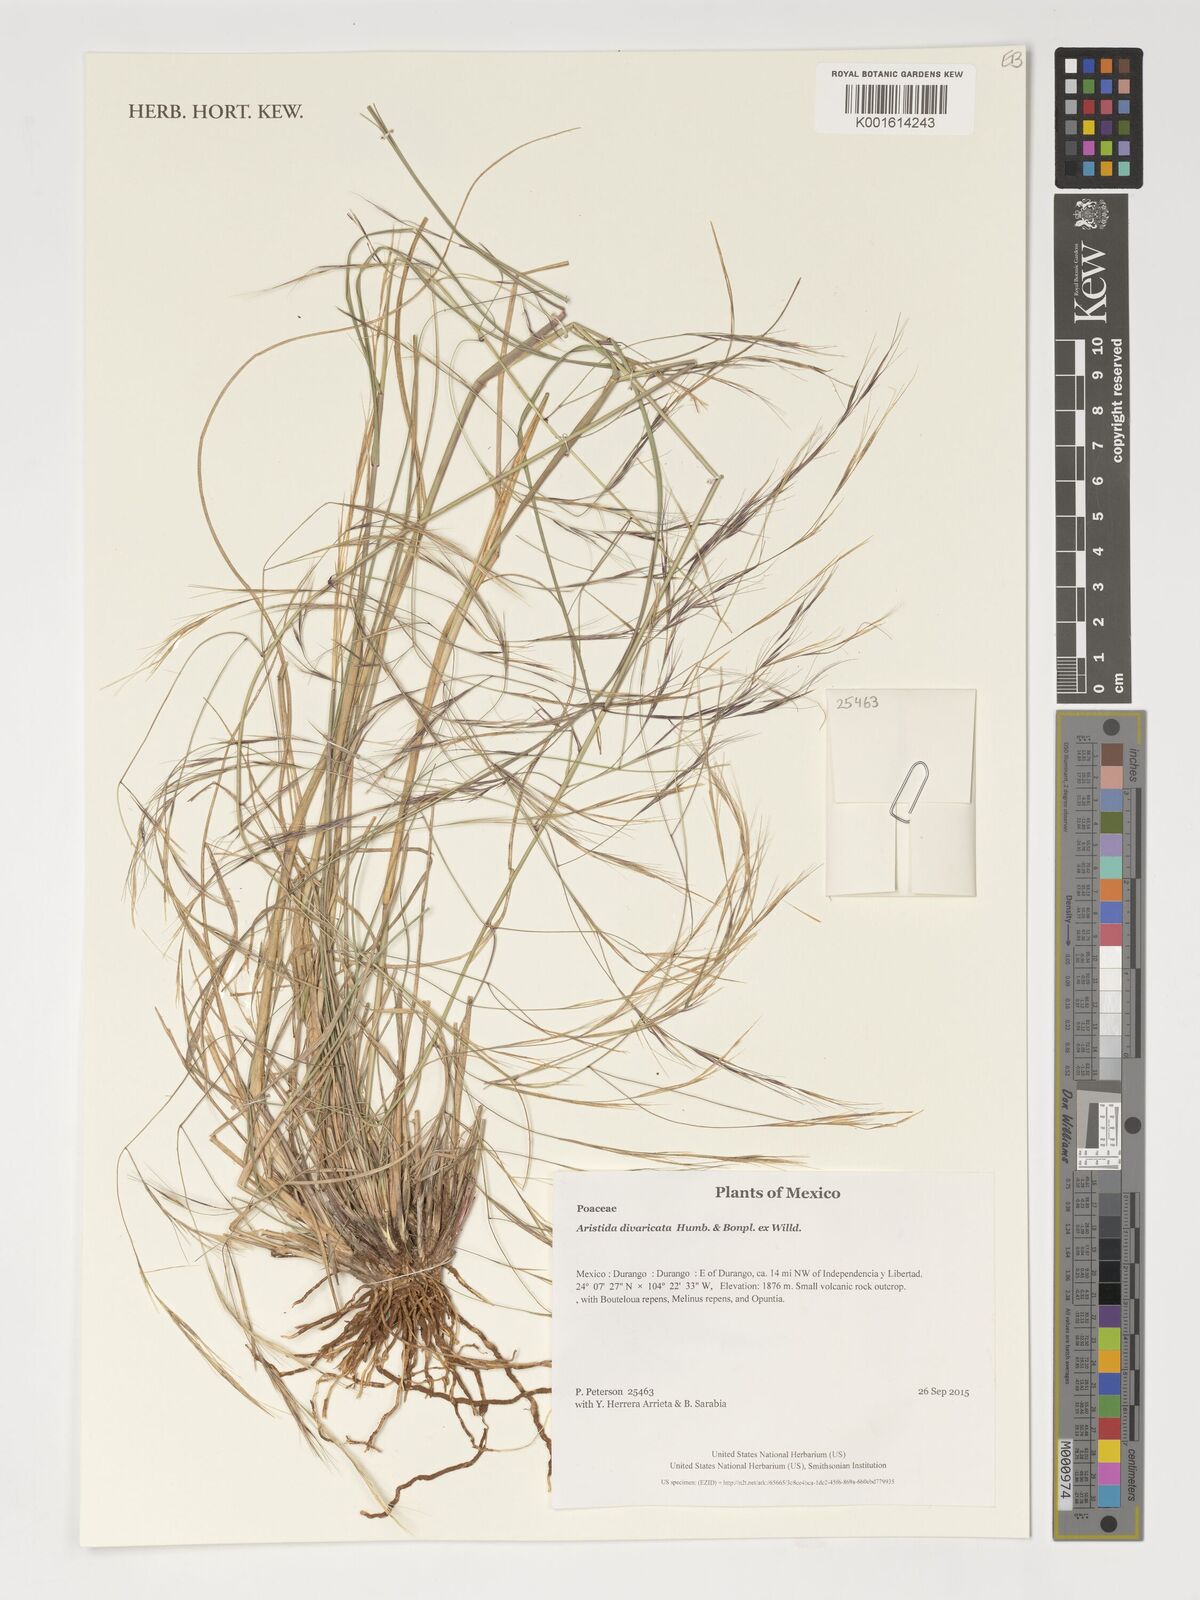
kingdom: Plantae
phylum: Tracheophyta
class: Liliopsida
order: Poales
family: Poaceae
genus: Aristida
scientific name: Aristida divaricata
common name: Poverty grass
